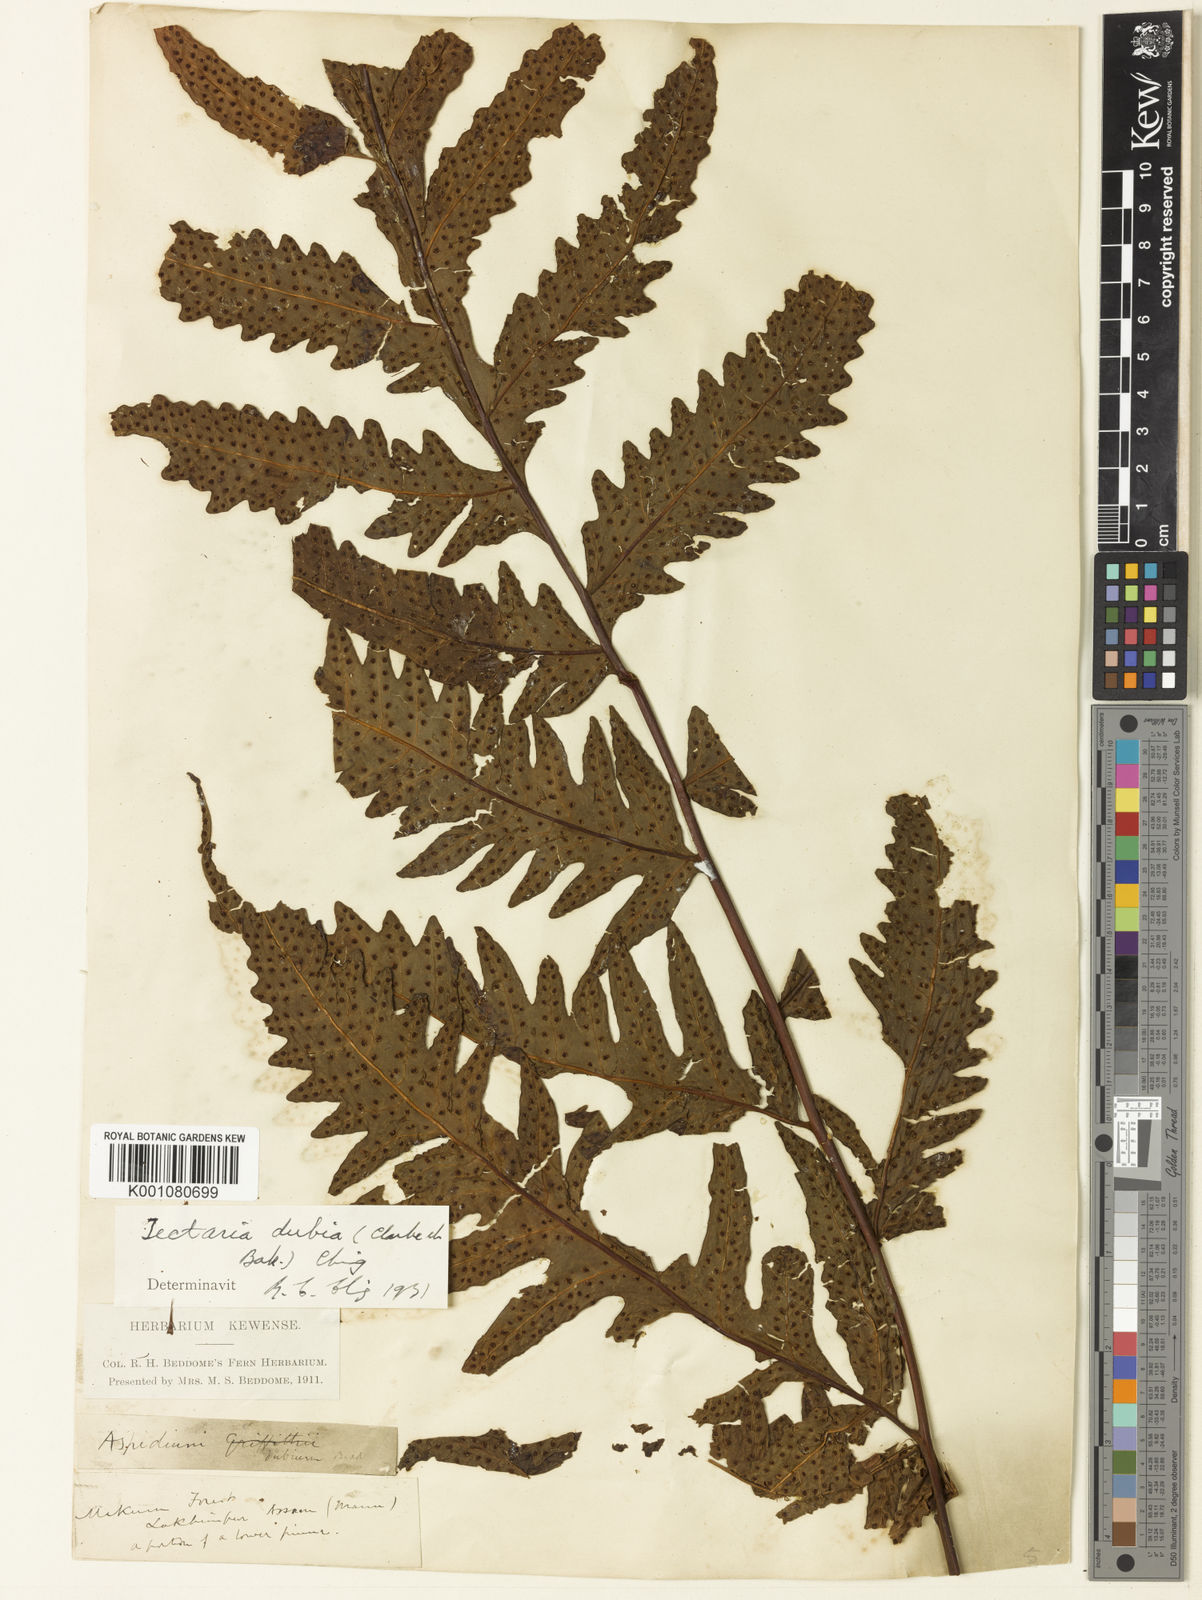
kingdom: Plantae
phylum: Tracheophyta
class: Polypodiopsida
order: Polypodiales
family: Tectariaceae
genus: Tectaria
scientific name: Tectaria griffithii
